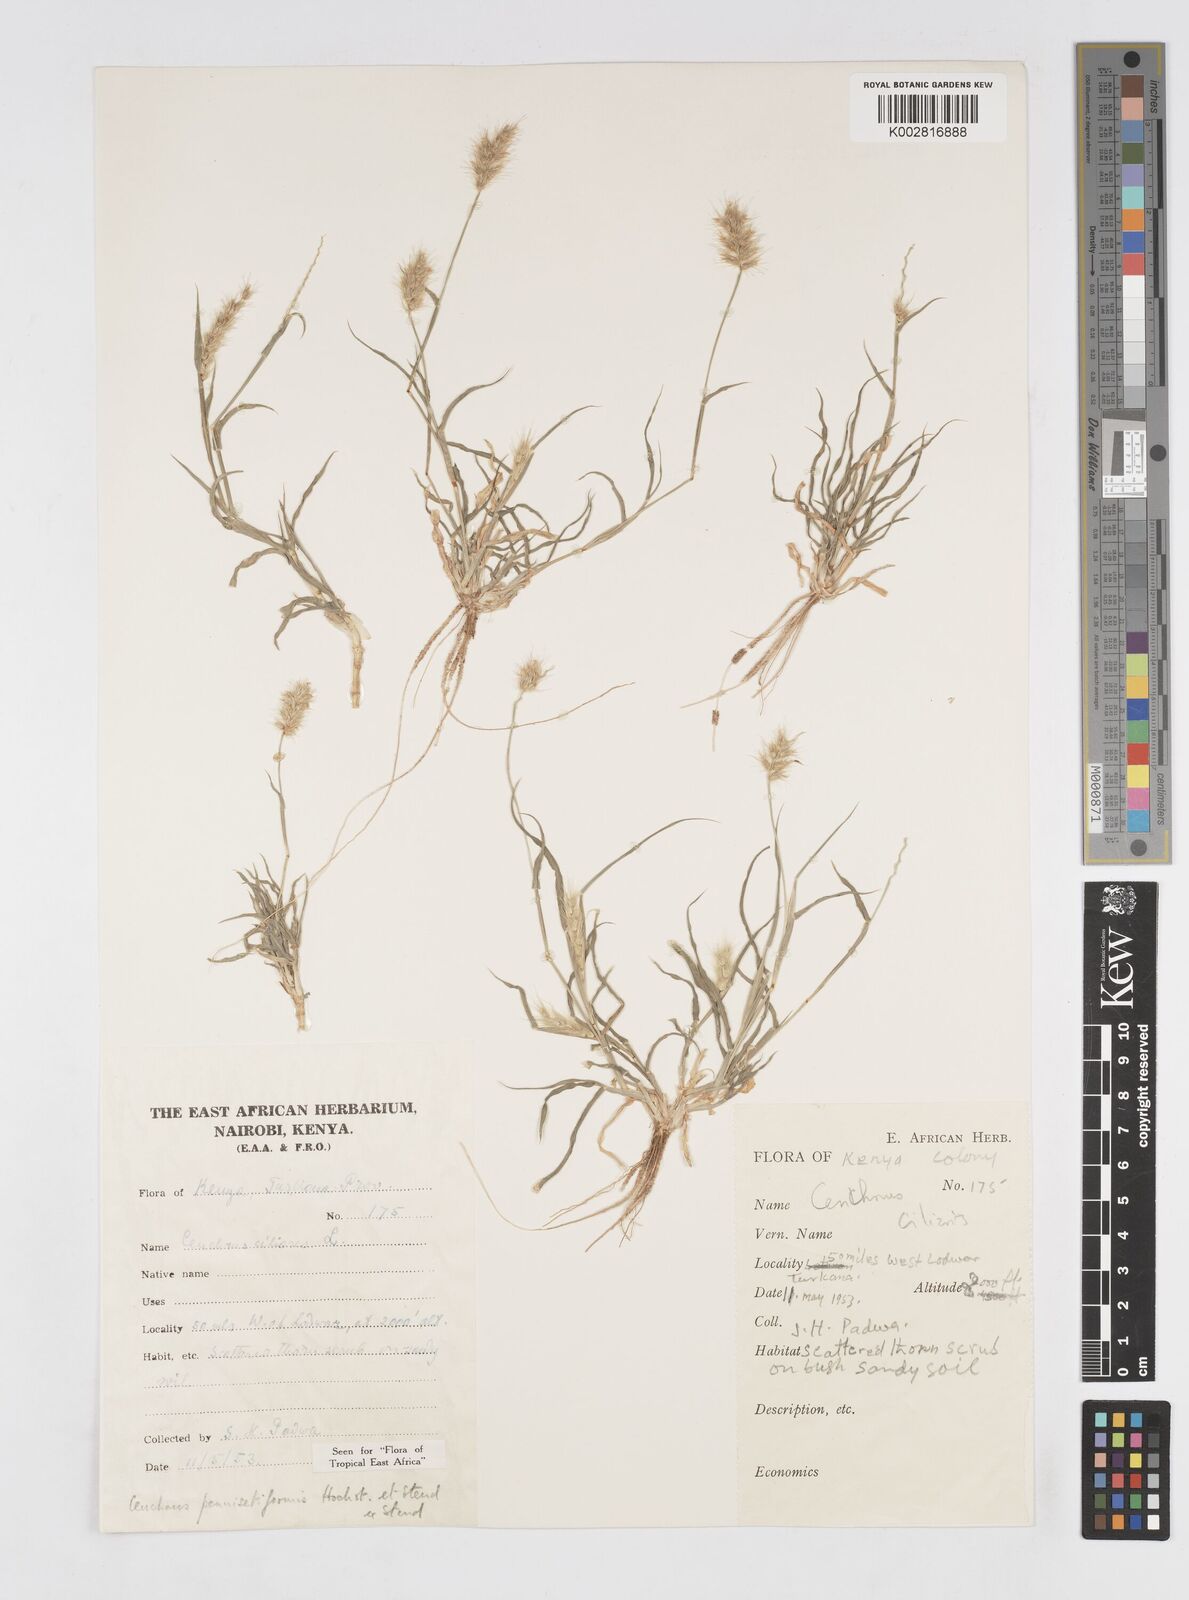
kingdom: Plantae
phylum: Tracheophyta
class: Liliopsida
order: Poales
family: Poaceae
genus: Cenchrus
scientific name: Cenchrus pennisetiformis
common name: Cloncurry
